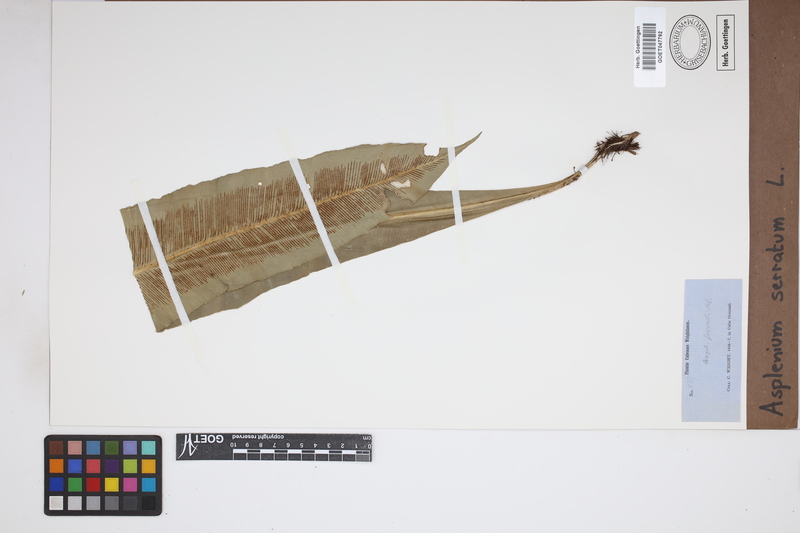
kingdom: Plantae
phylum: Tracheophyta
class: Polypodiopsida
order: Polypodiales
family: Aspleniaceae
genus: Asplenium
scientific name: Asplenium serratum
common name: Wild birdnest fern
